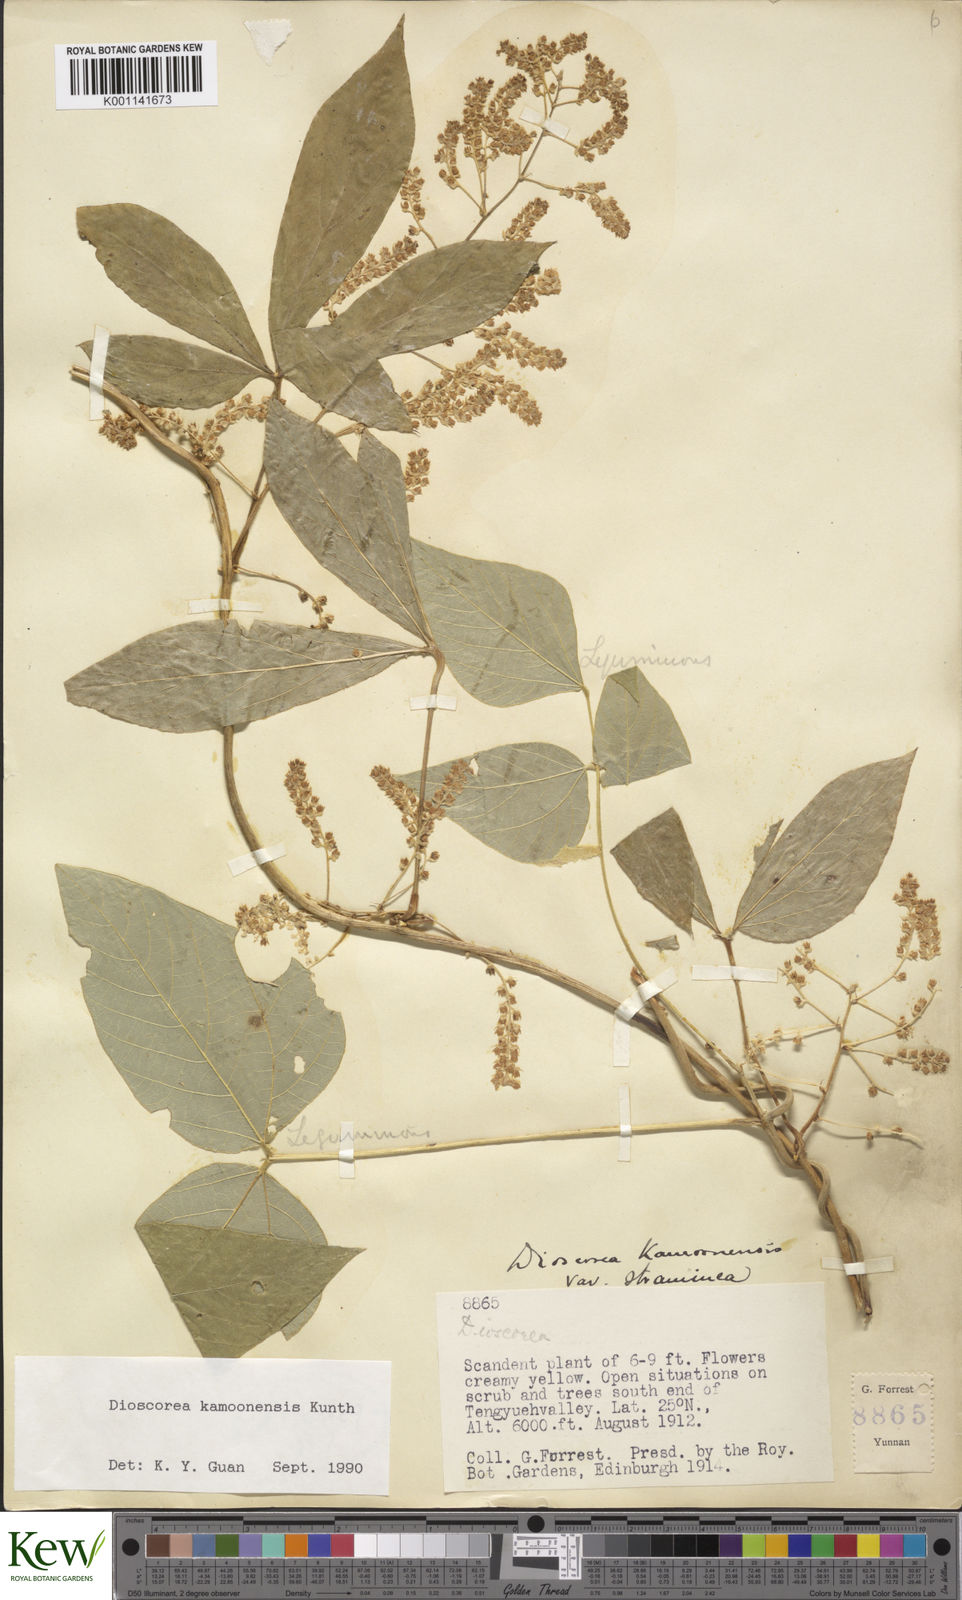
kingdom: Plantae
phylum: Tracheophyta
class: Liliopsida
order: Dioscoreales
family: Dioscoreaceae
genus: Dioscorea
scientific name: Dioscorea kamoonensis
